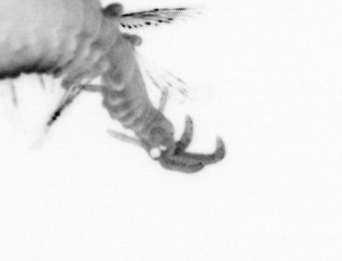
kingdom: Animalia
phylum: Annelida
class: Polychaeta
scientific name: Polychaeta
